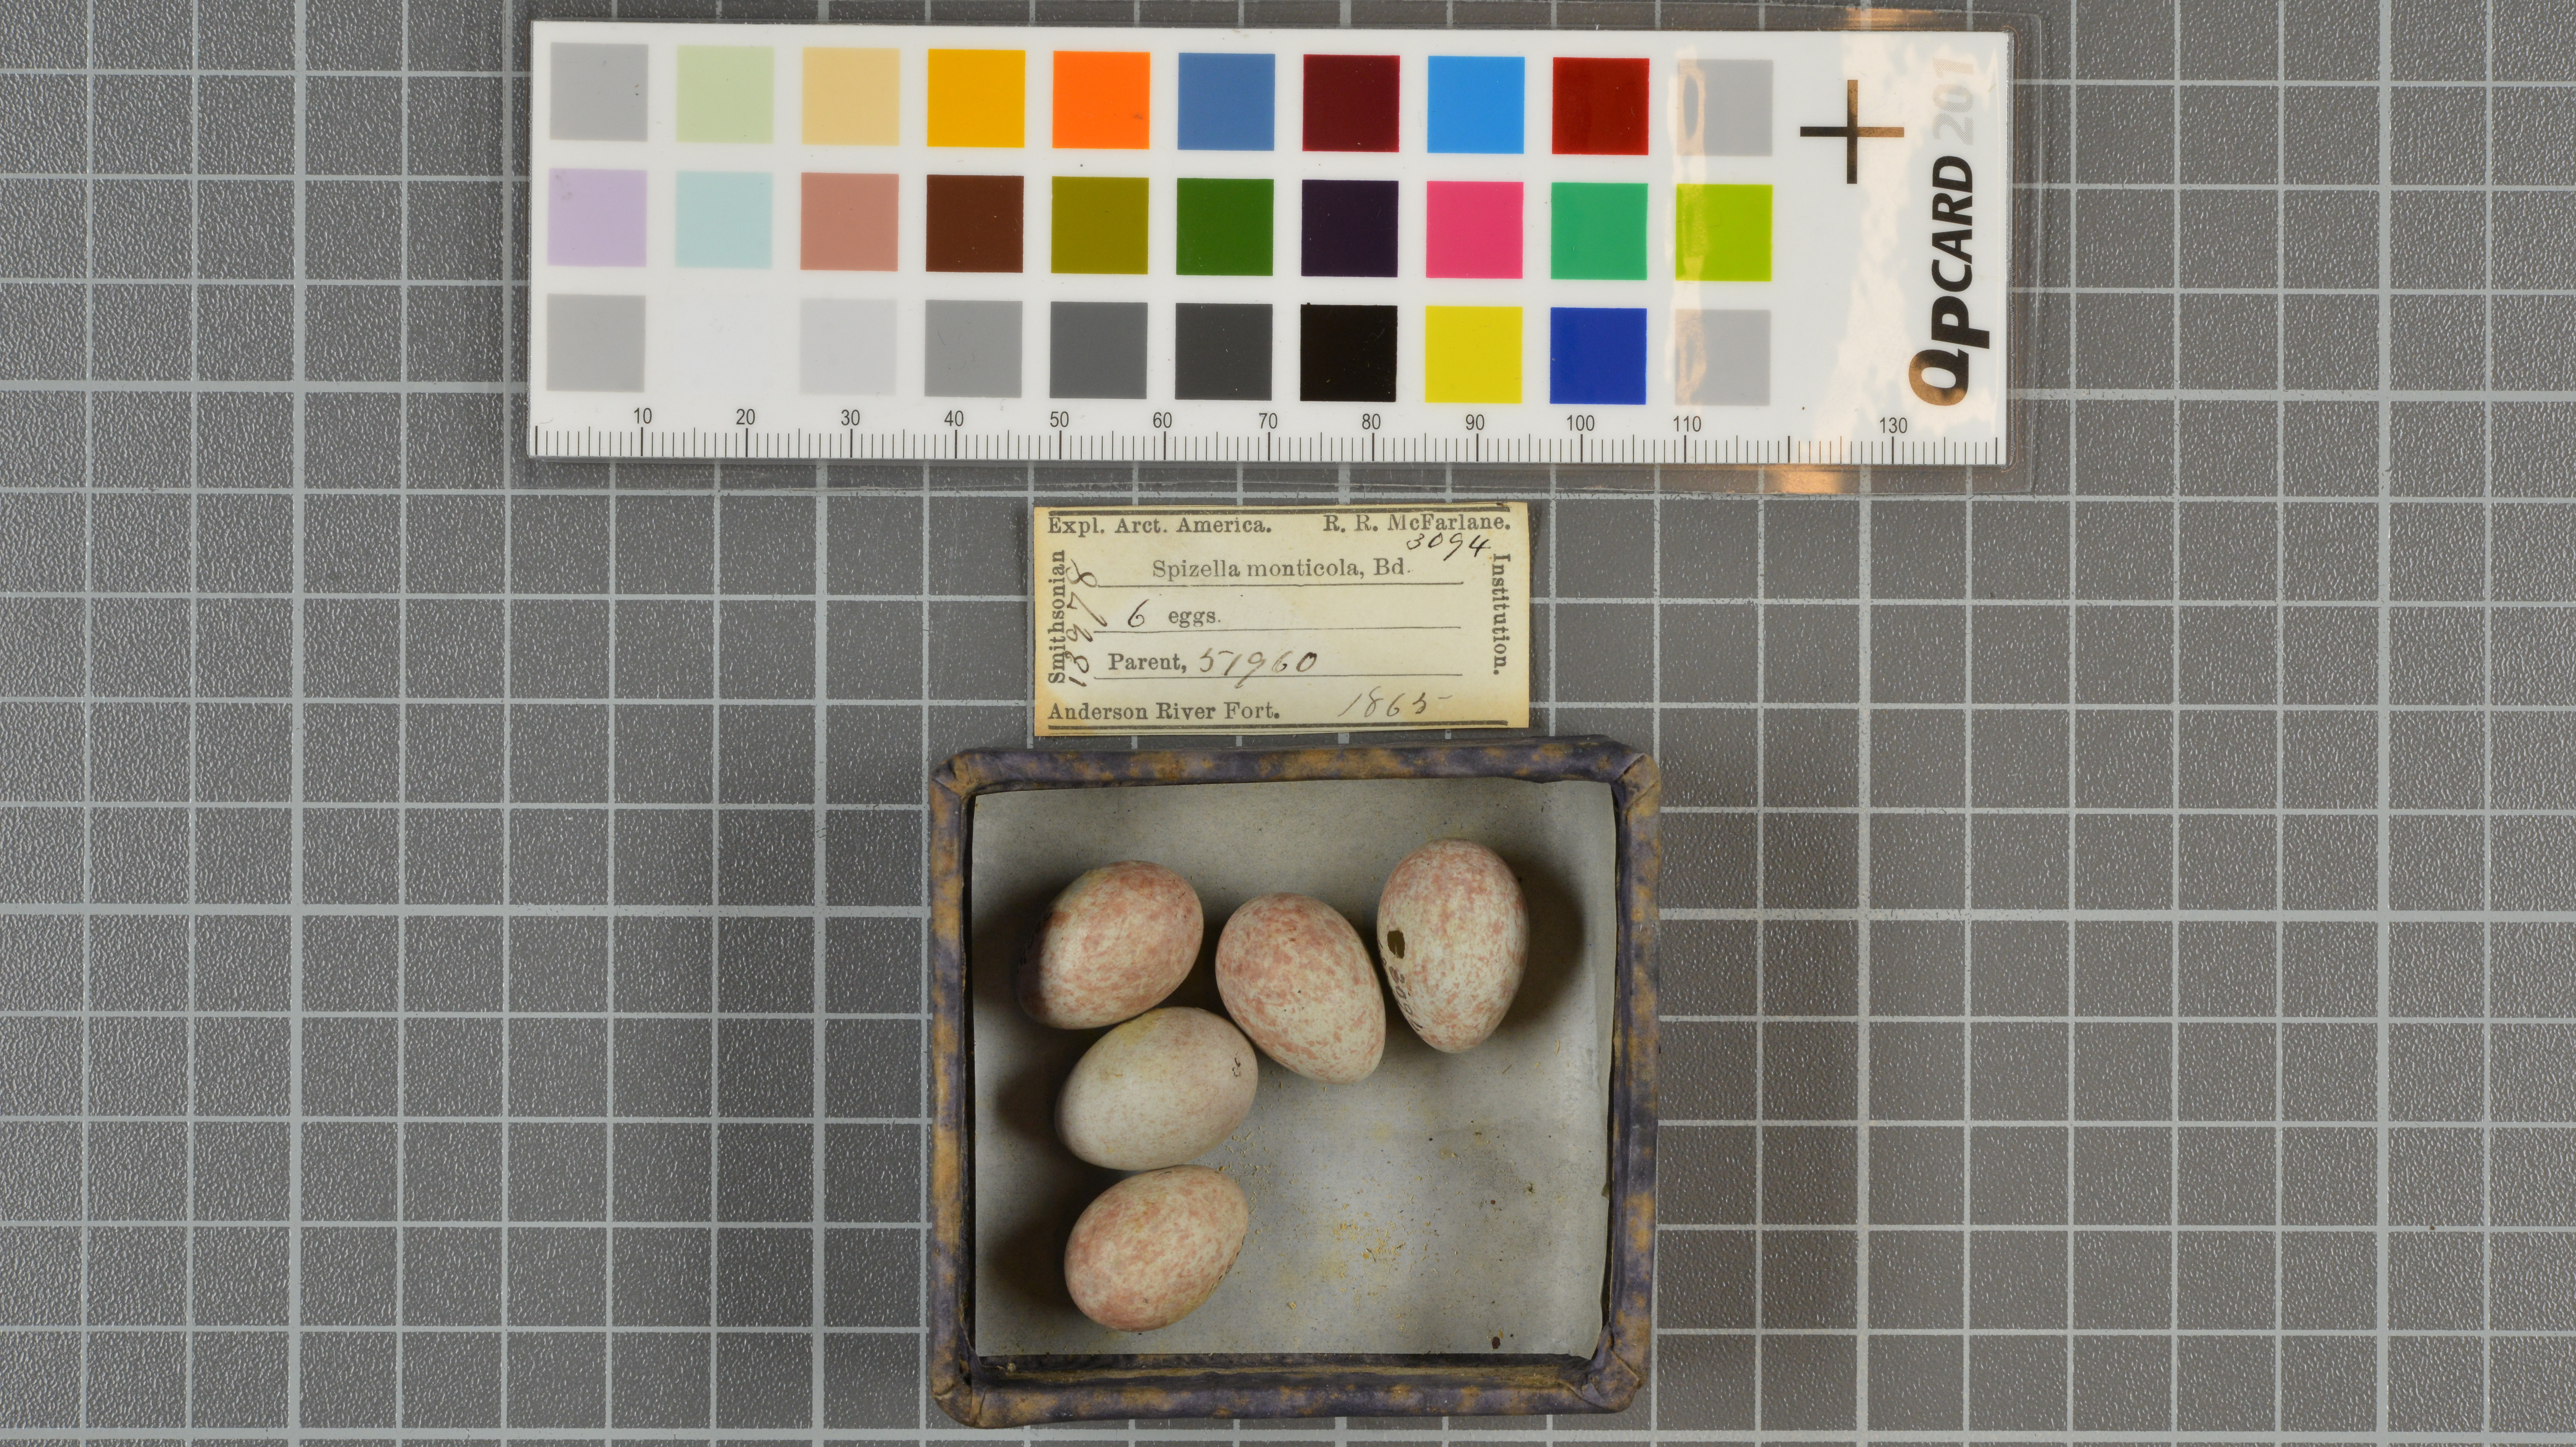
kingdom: Animalia
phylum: Chordata
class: Aves
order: Passeriformes
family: Passerellidae
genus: Spizelloides
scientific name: Spizelloides arborea
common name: American tree sparrow
